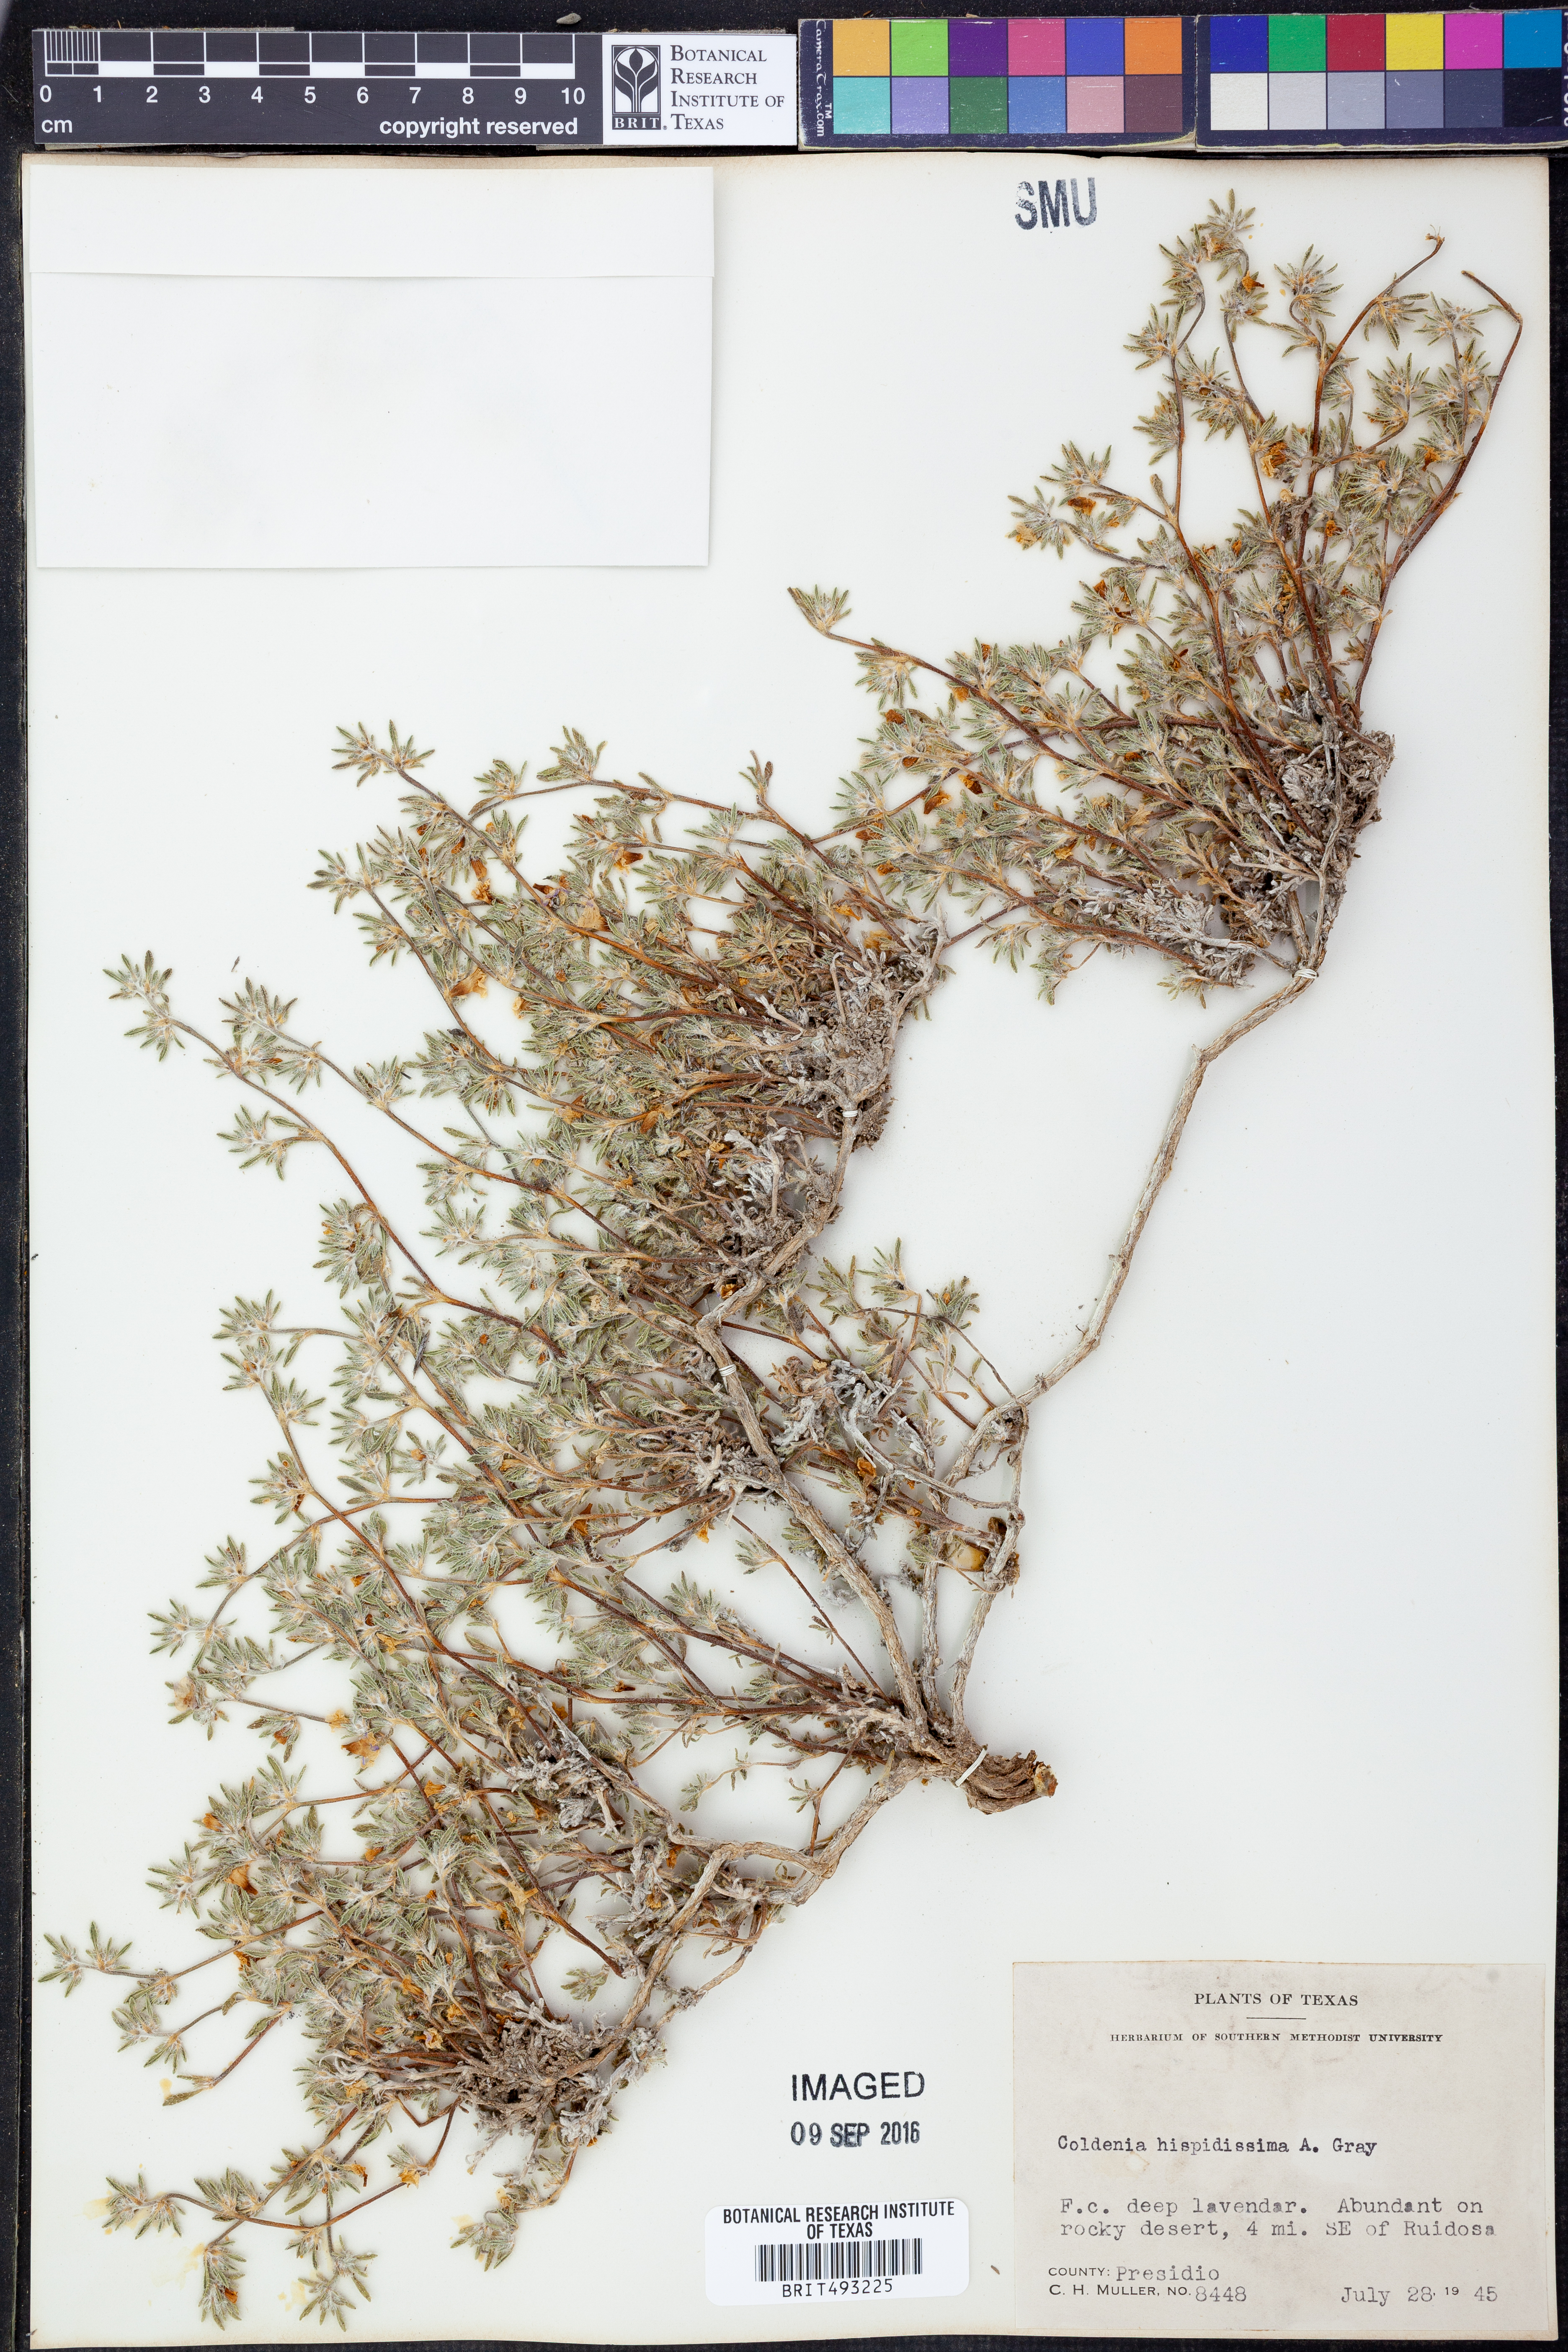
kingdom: Plantae
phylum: Tracheophyta
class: Magnoliopsida
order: Boraginales
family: Ehretiaceae
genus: Tiquilia
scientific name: Tiquilia hispidissima
